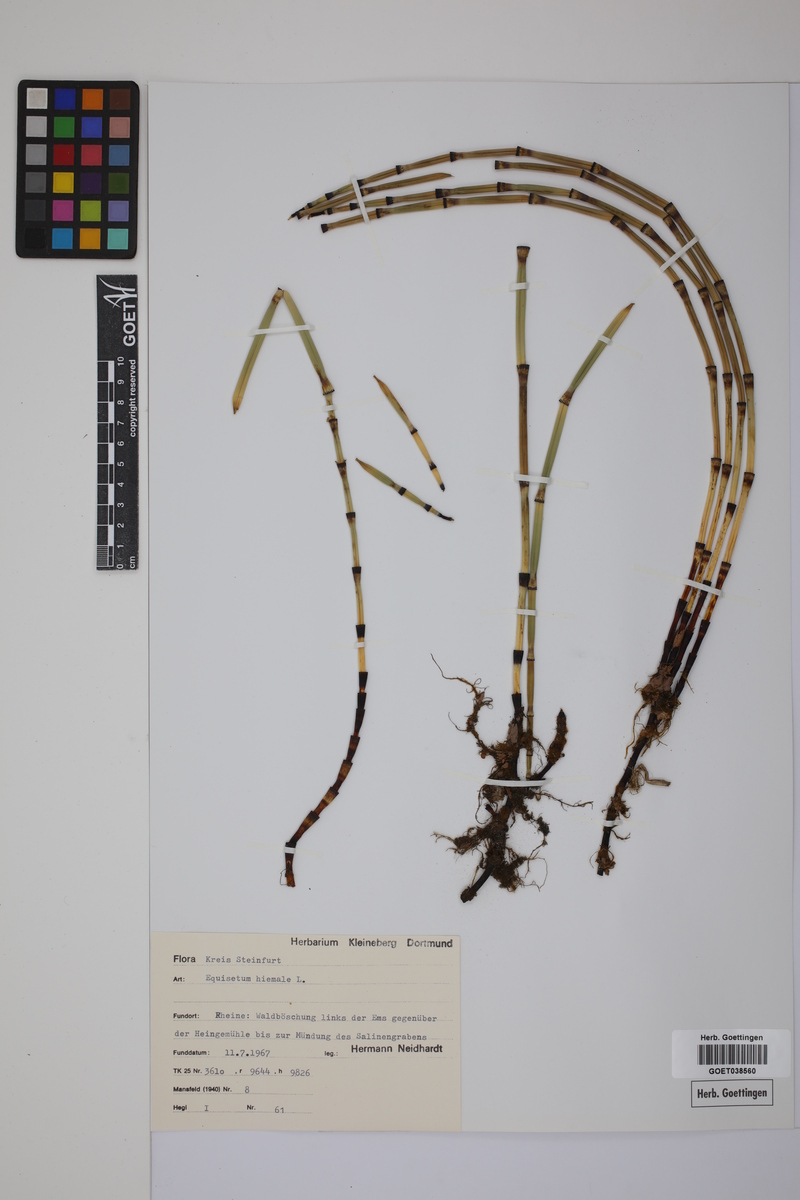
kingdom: Plantae
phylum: Tracheophyta
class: Polypodiopsida
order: Equisetales
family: Equisetaceae
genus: Equisetum
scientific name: Equisetum hyemale
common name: Rough horsetail
